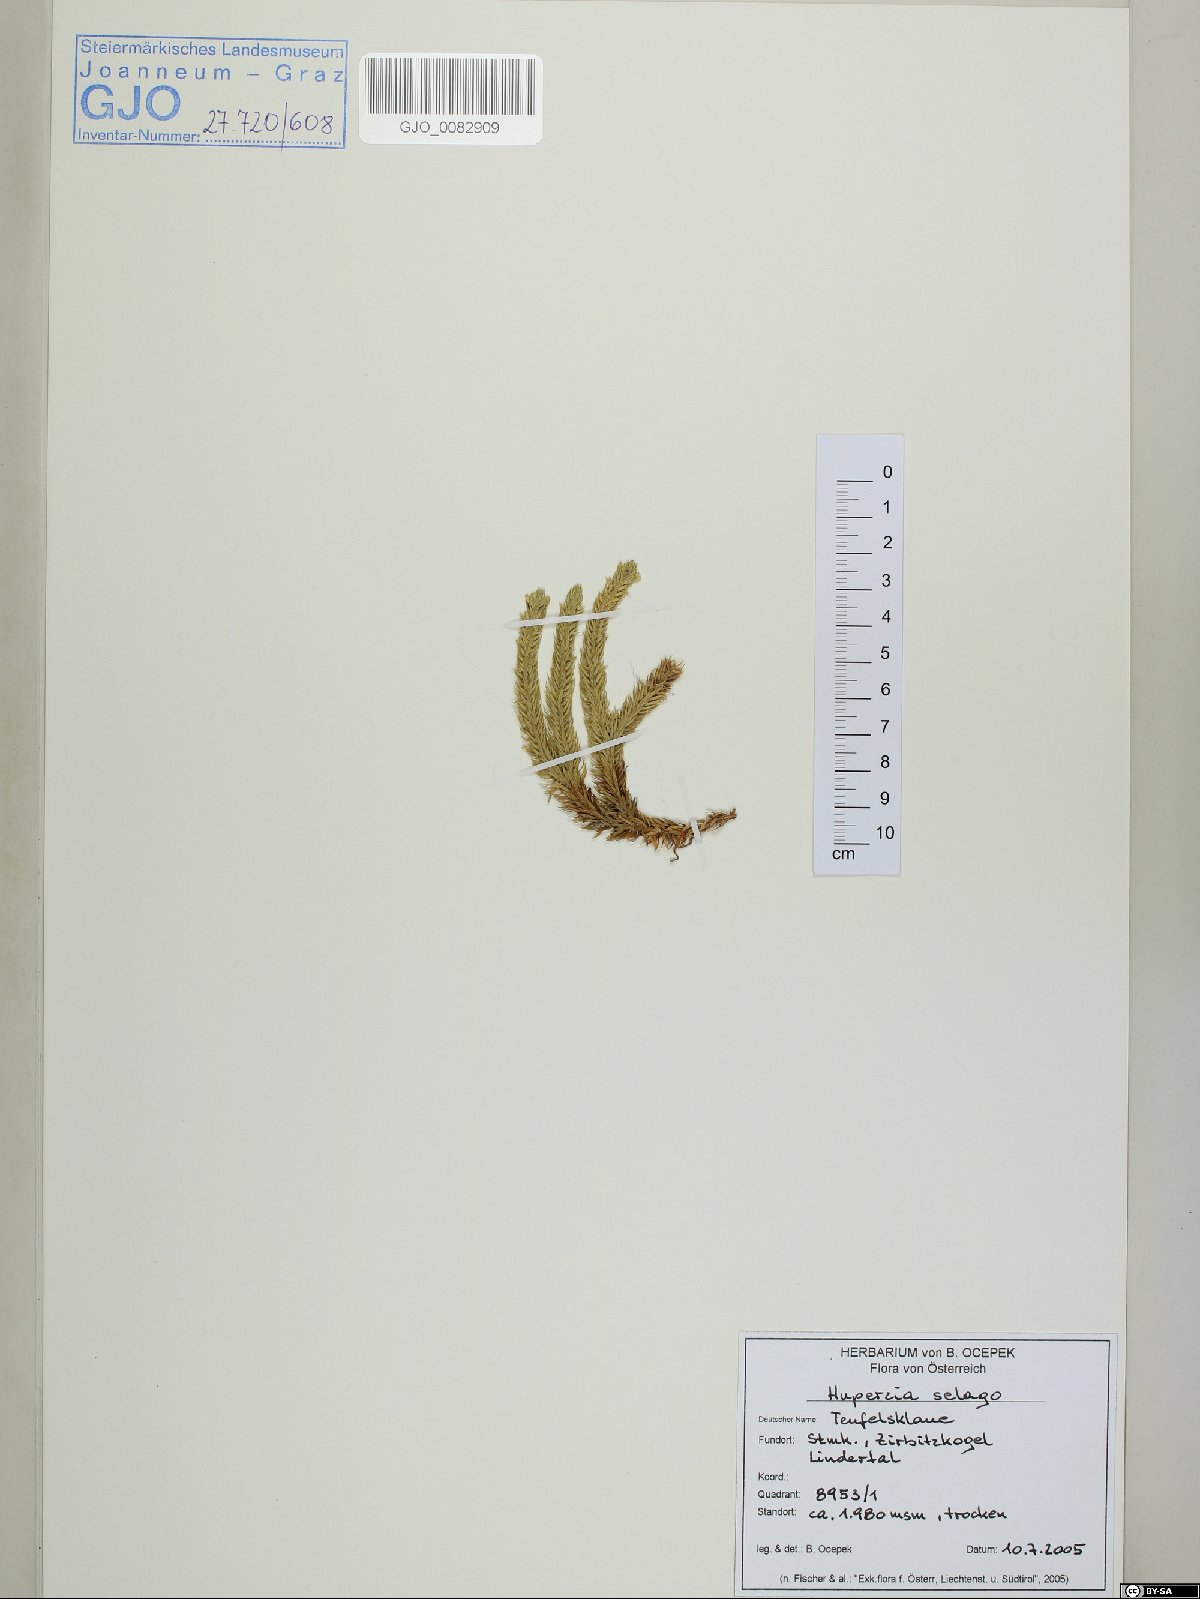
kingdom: Plantae
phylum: Tracheophyta
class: Lycopodiopsida
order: Lycopodiales
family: Lycopodiaceae
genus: Huperzia
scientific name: Huperzia selago
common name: Northern firmoss
